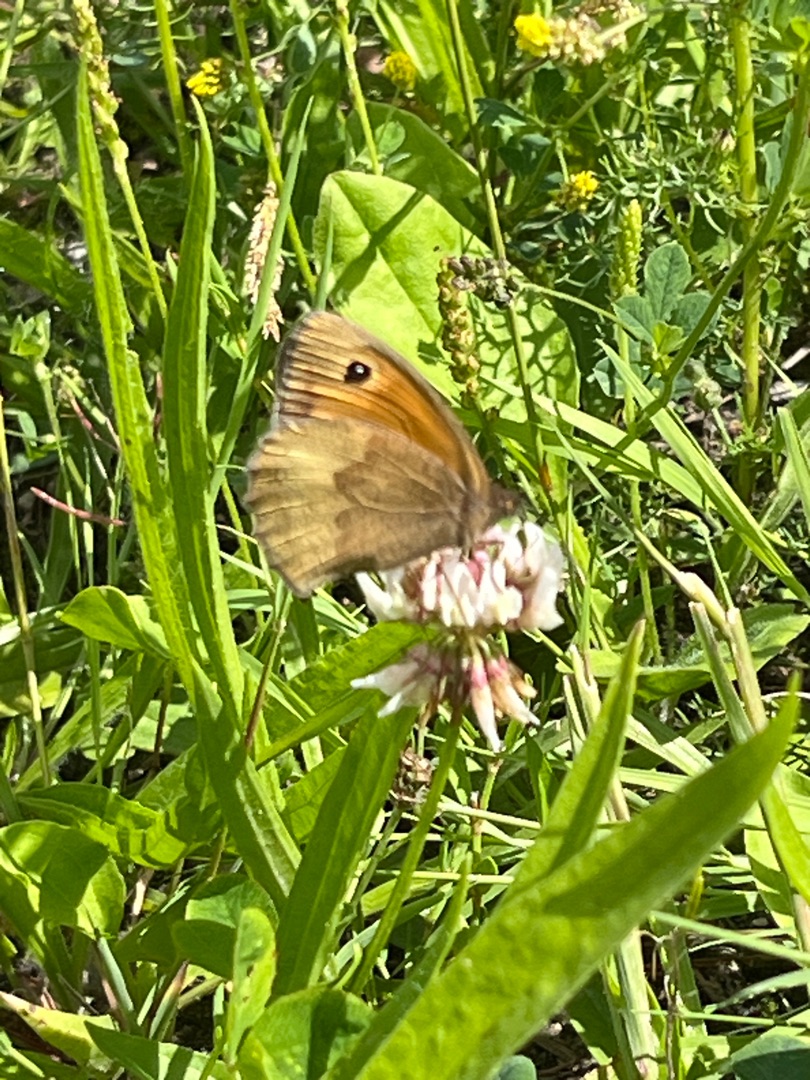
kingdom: Animalia
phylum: Arthropoda
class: Insecta
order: Lepidoptera
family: Nymphalidae
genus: Maniola
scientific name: Maniola jurtina
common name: Græsrandøje
